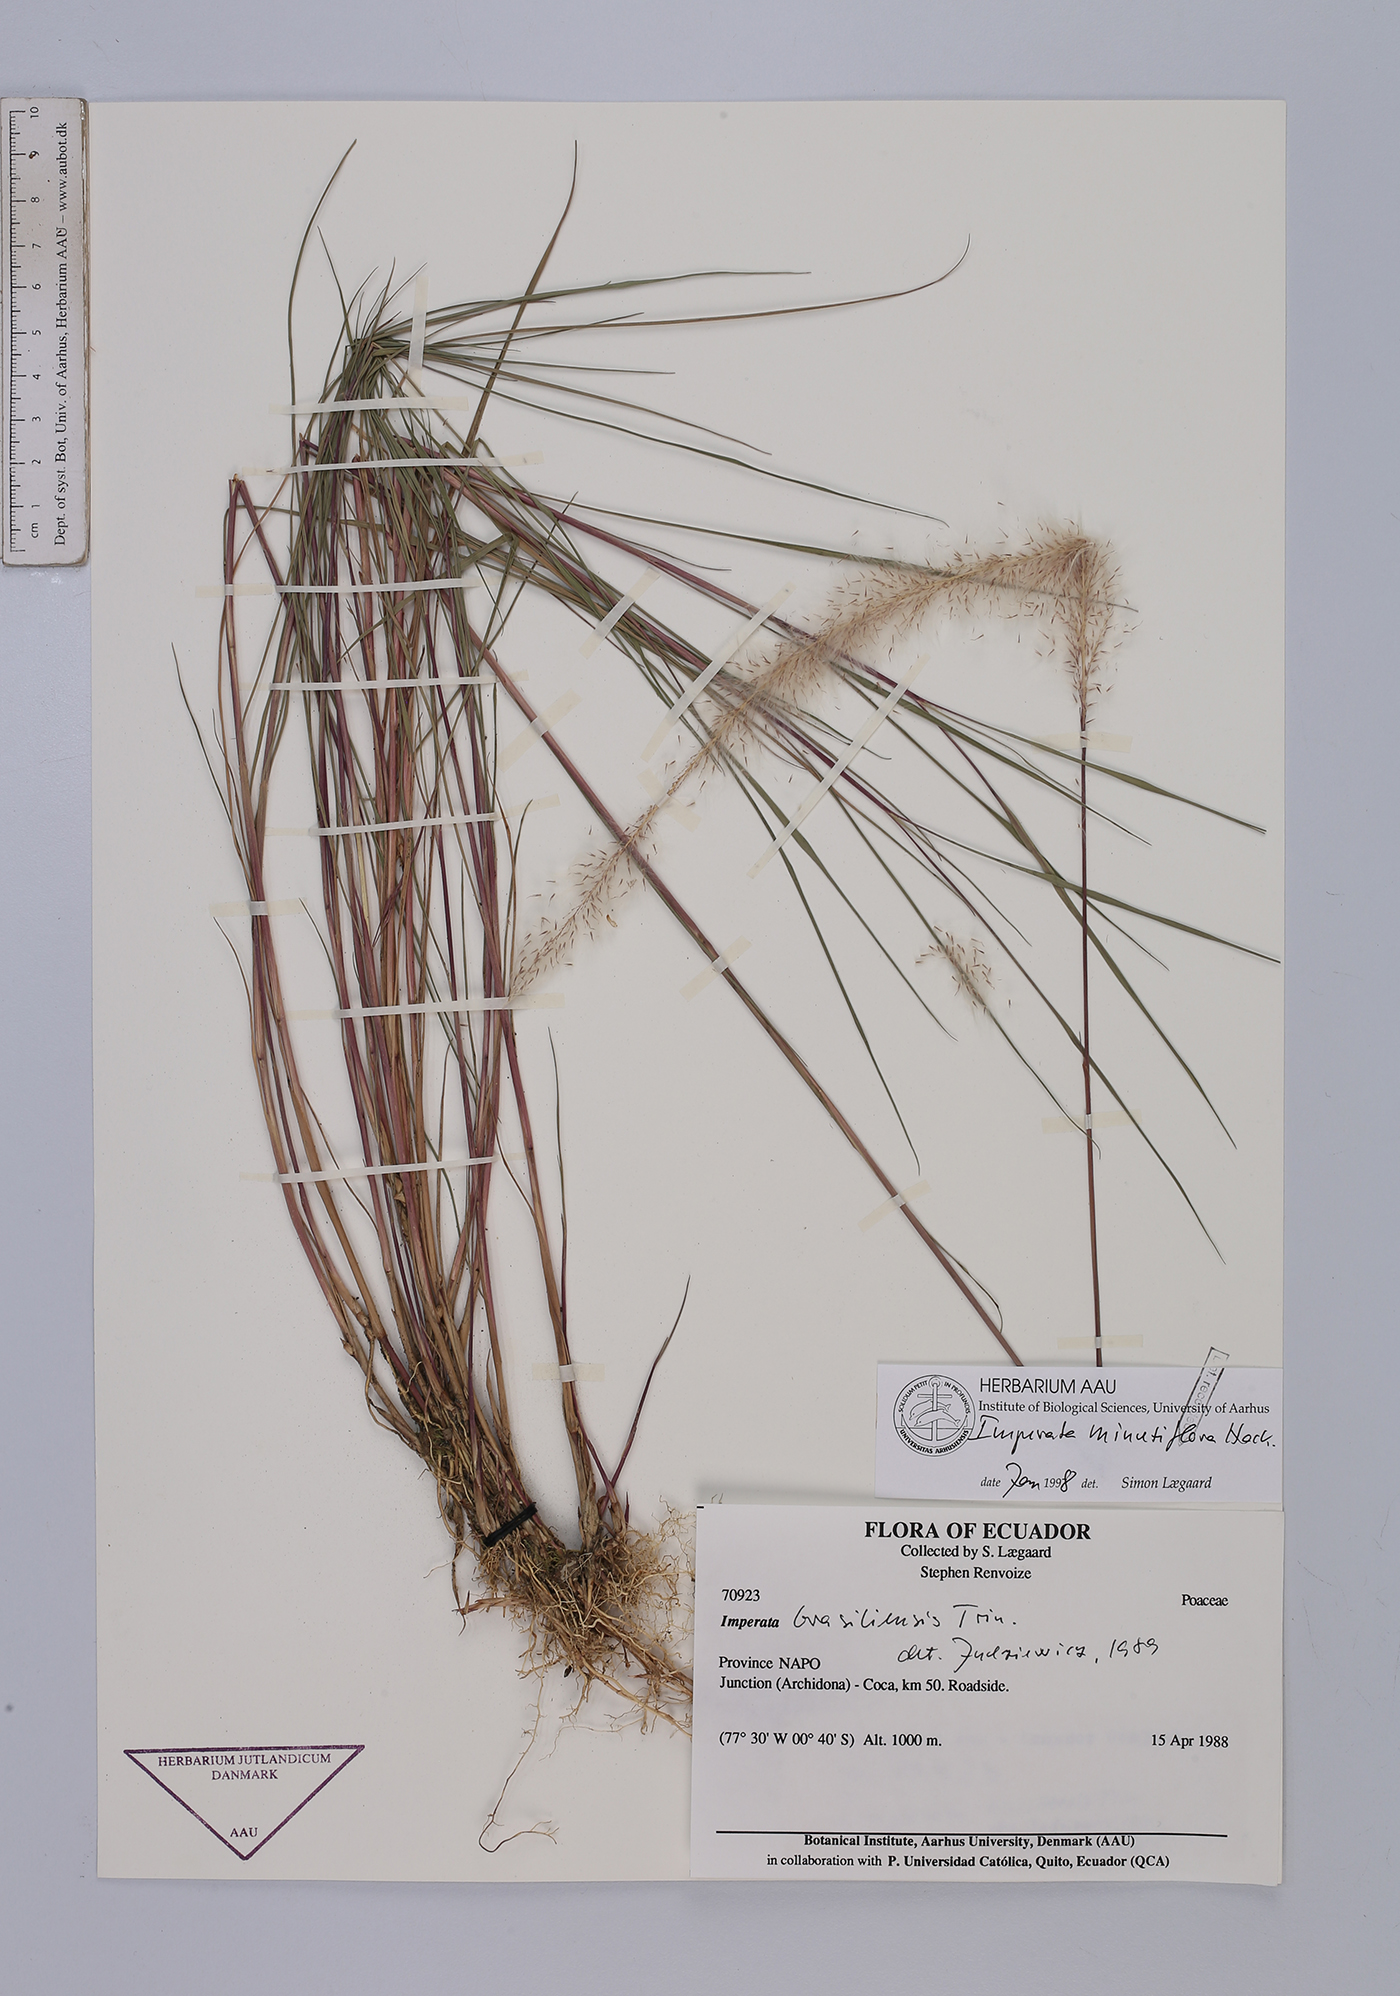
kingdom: Plantae
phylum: Tracheophyta
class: Liliopsida
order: Poales
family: Poaceae
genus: Imperata
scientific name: Imperata minutiflora
